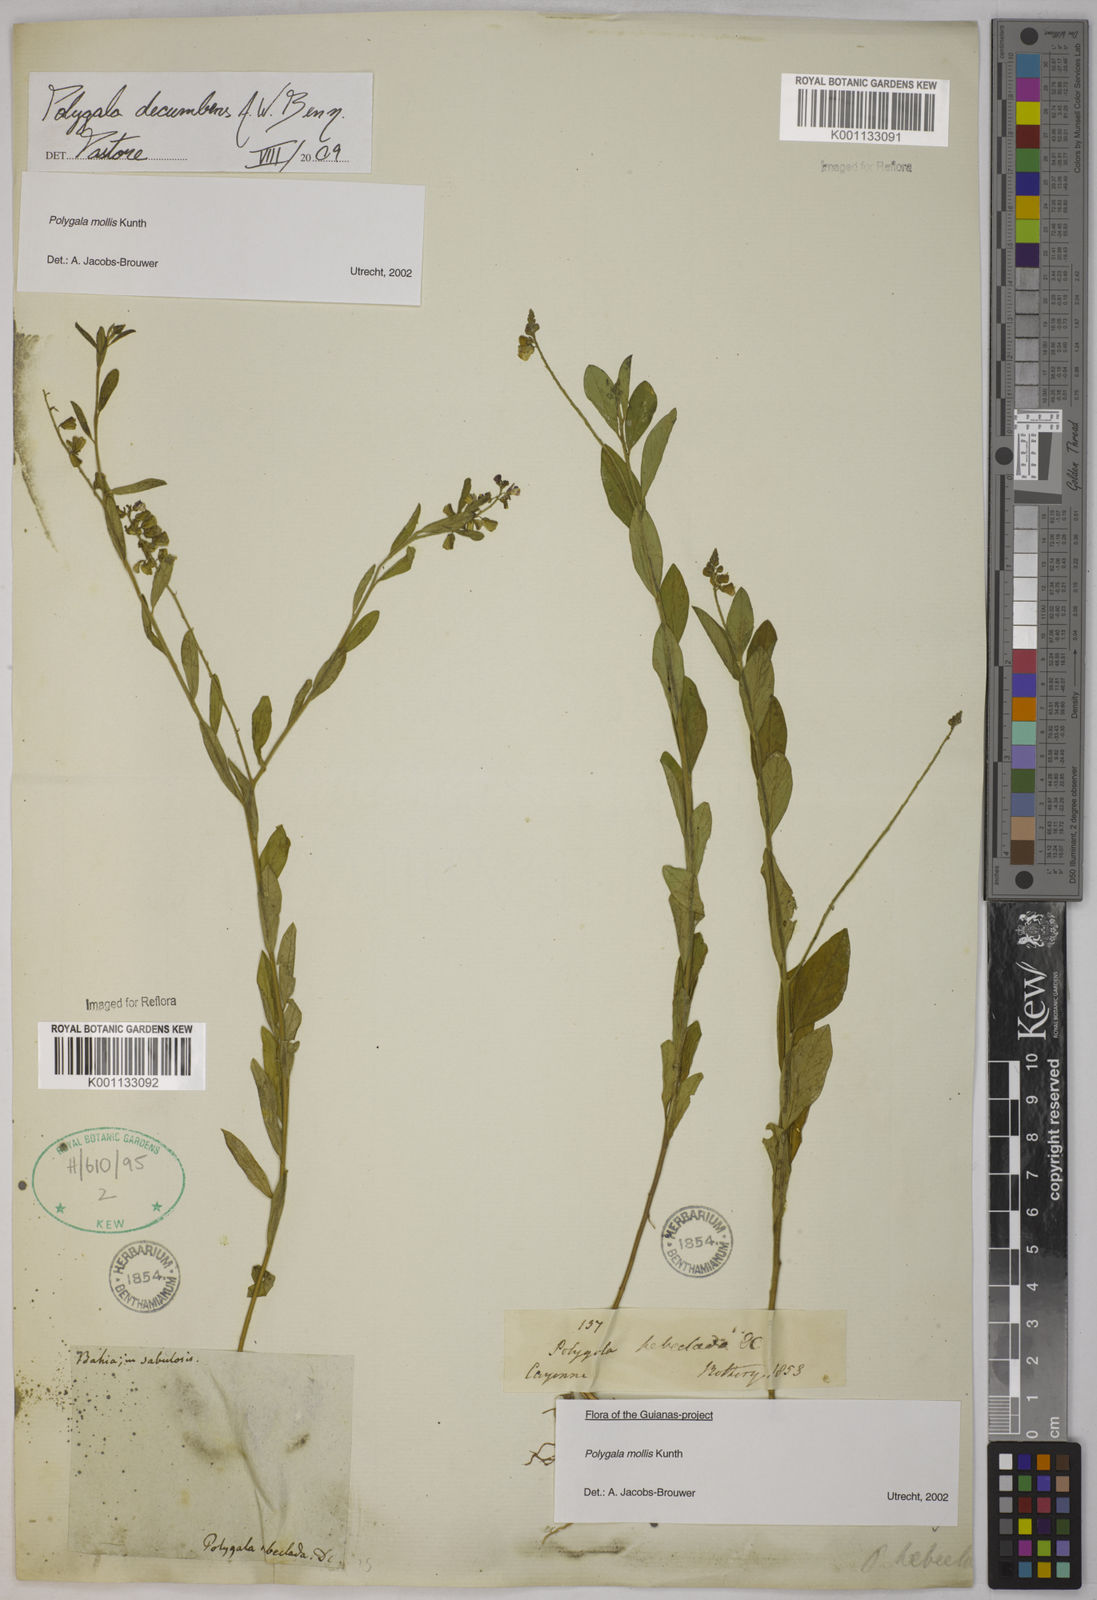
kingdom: Plantae
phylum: Tracheophyta
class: Magnoliopsida
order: Fabales
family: Polygalaceae
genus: Asemeia
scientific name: Asemeia ovata
